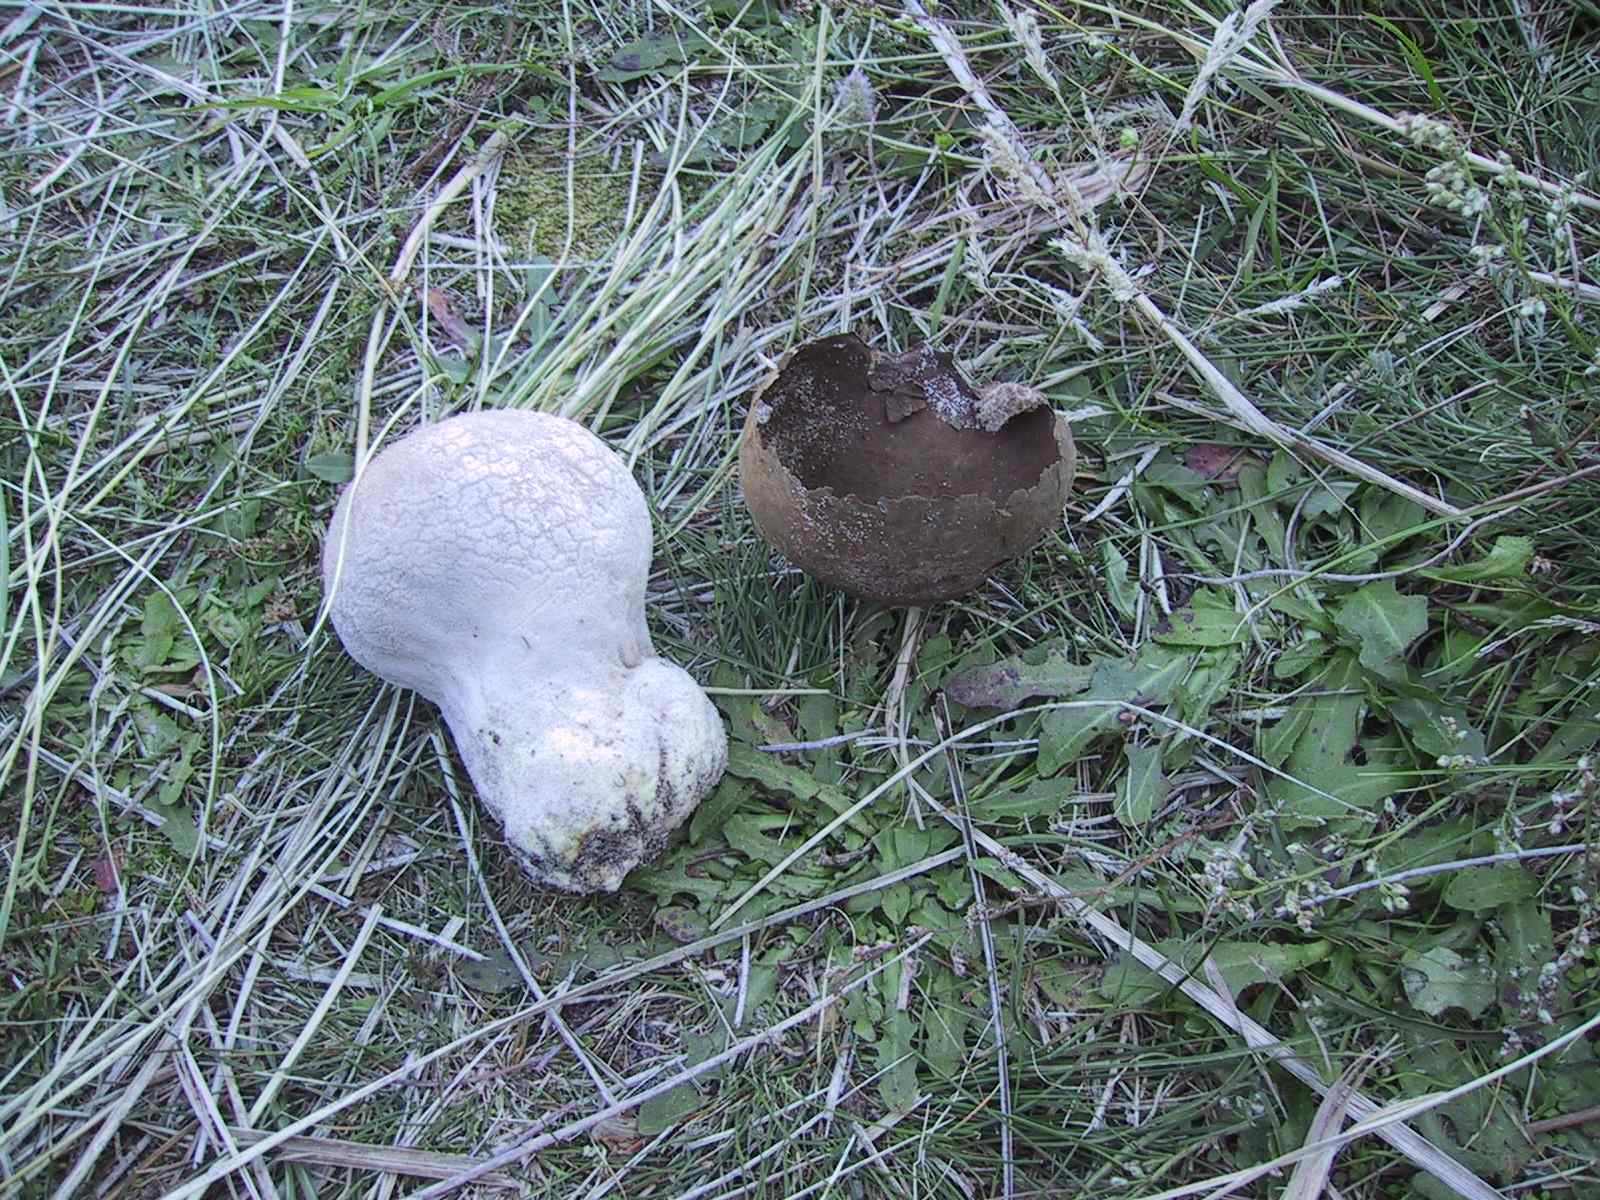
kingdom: Fungi
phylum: Basidiomycota
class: Agaricomycetes
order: Agaricales
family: Lycoperdaceae
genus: Bovistella
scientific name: Bovistella utriformis
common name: skællet støvbold
